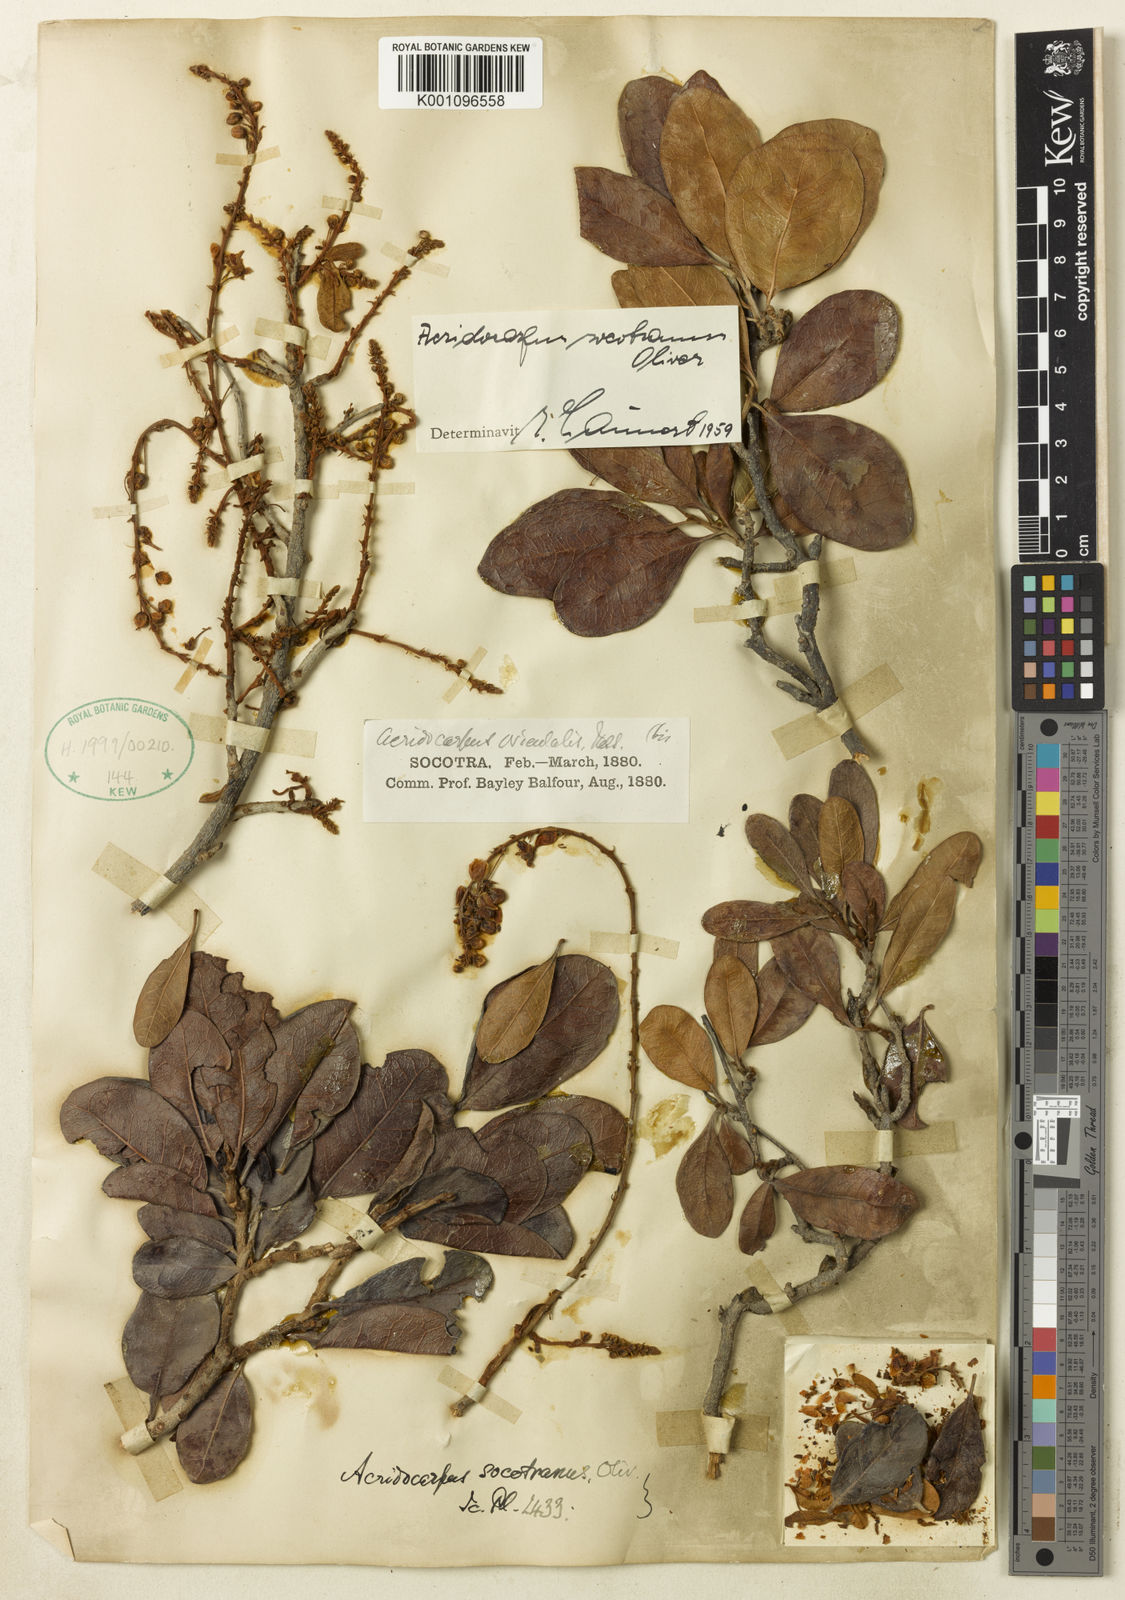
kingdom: Plantae
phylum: Tracheophyta
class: Magnoliopsida
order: Malpighiales
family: Malpighiaceae
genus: Acridocarpus
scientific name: Acridocarpus socotranus
